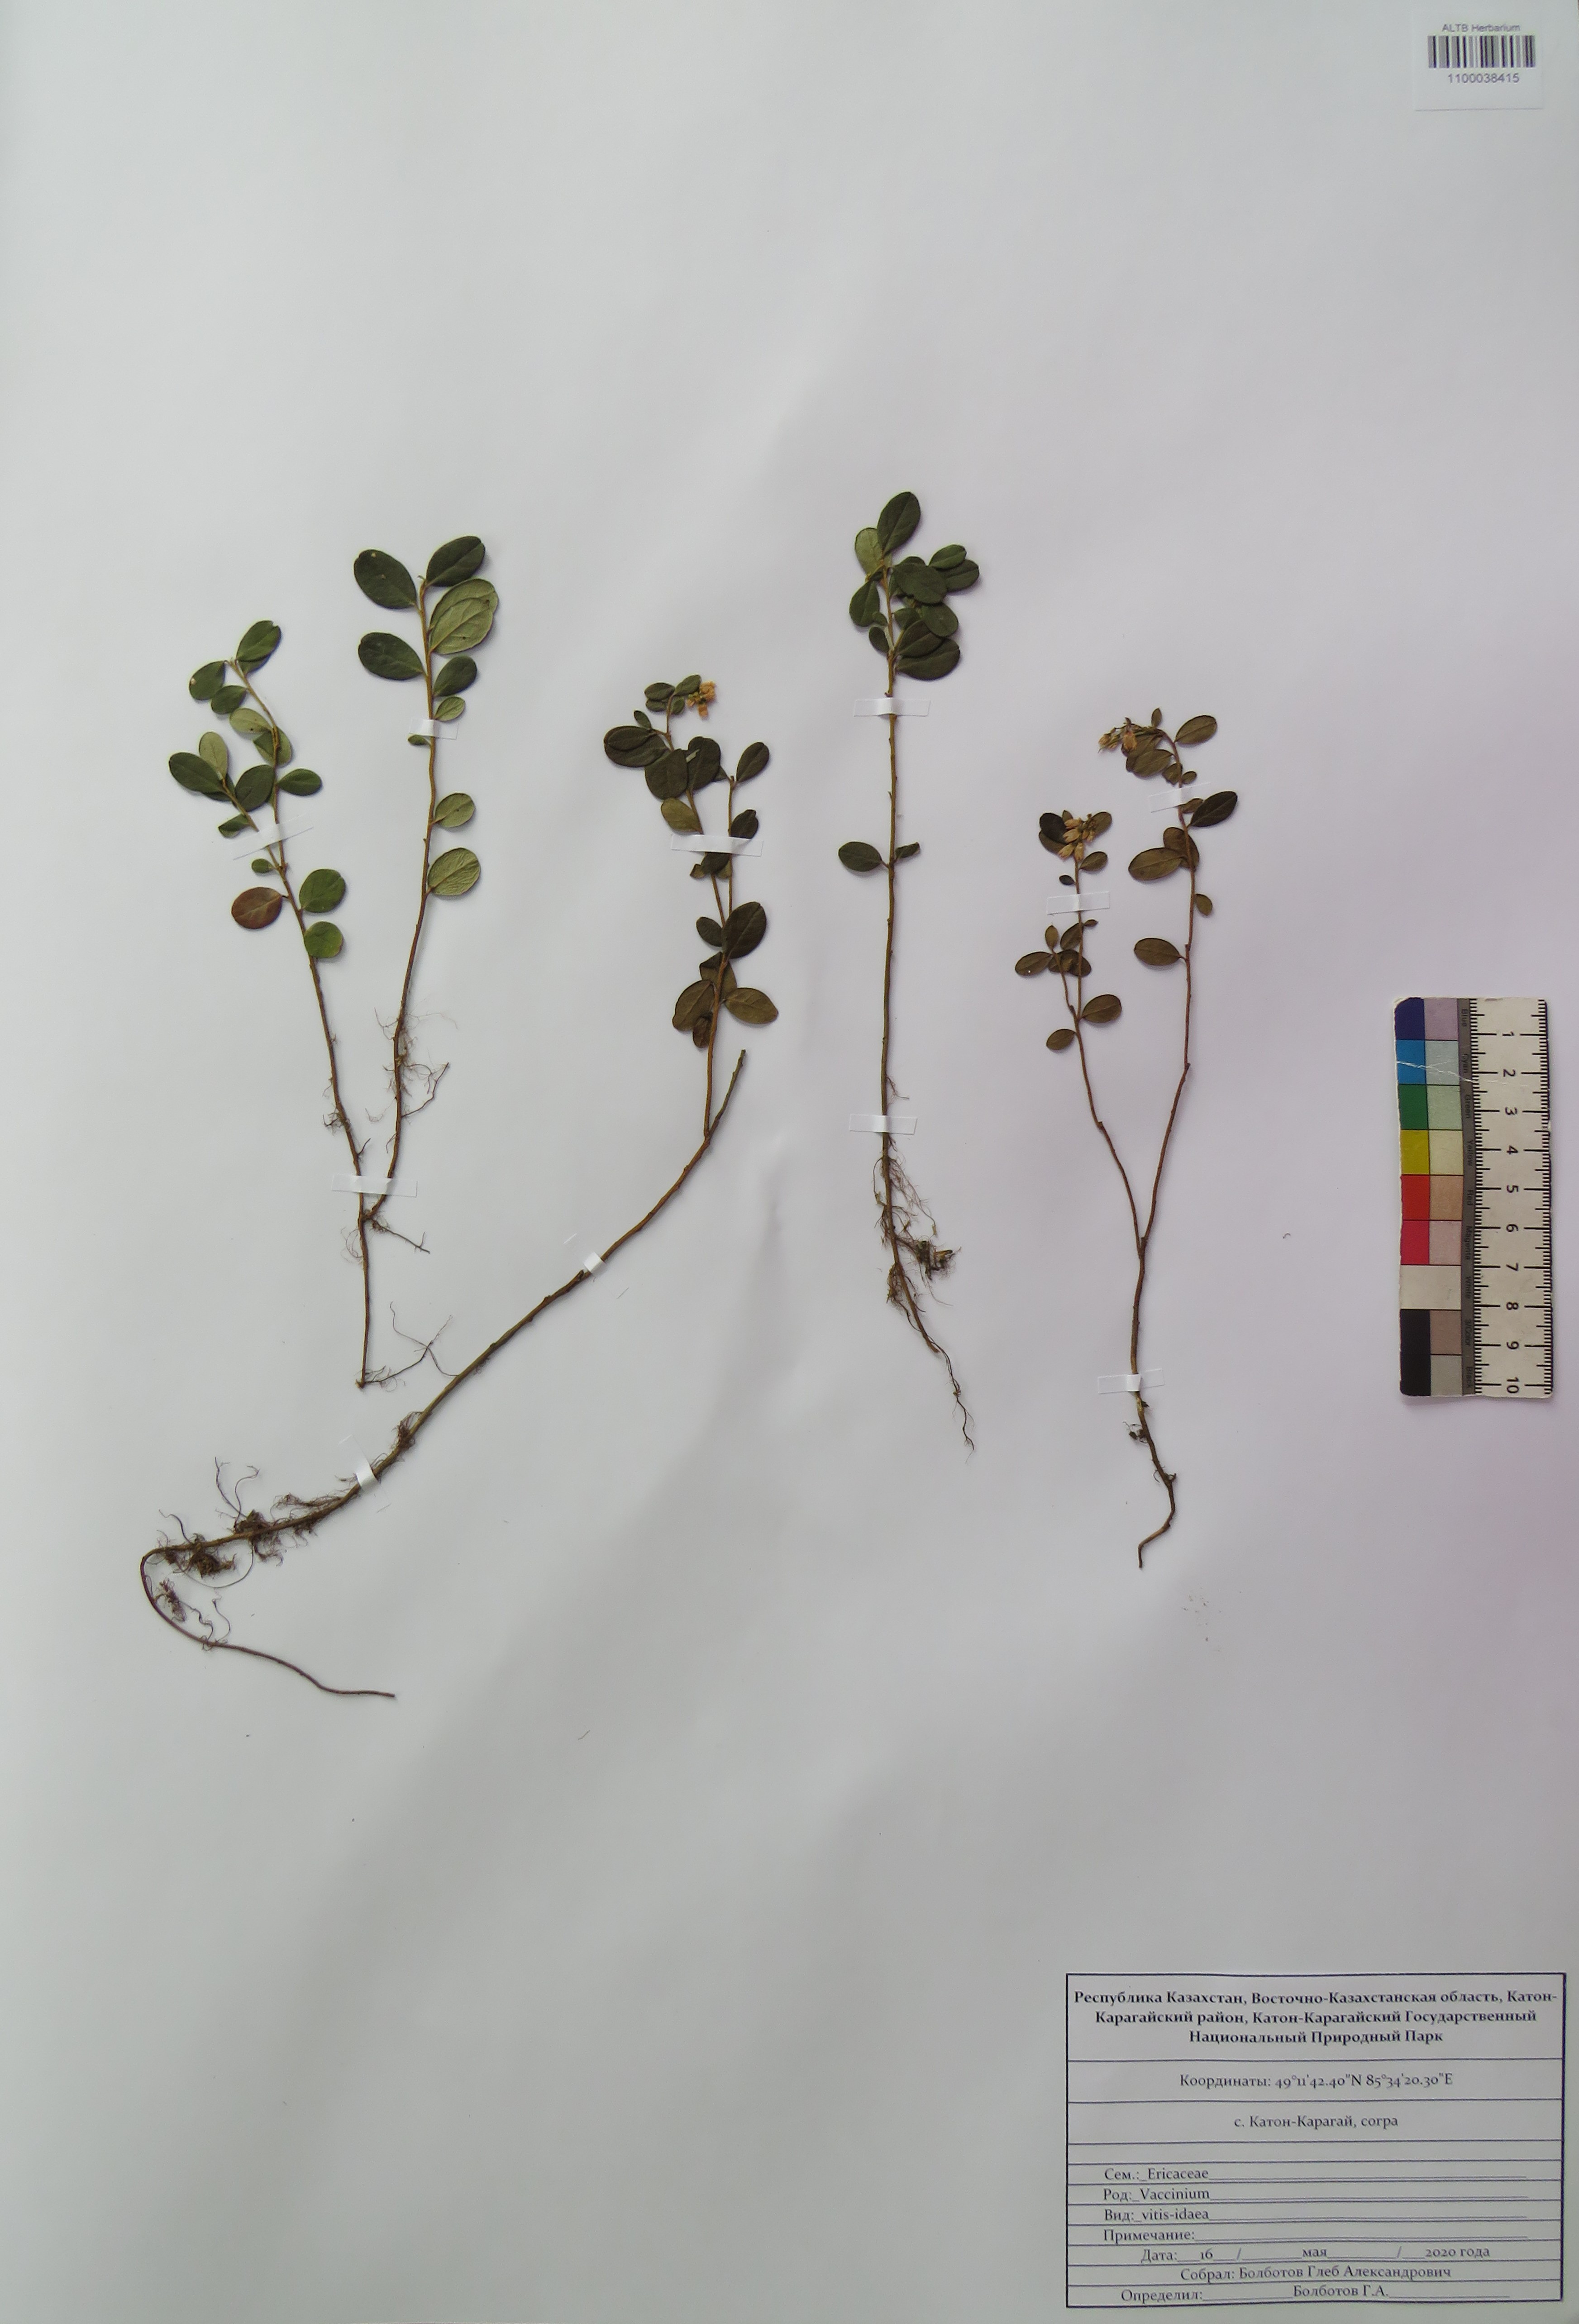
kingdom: Plantae
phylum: Tracheophyta
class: Magnoliopsida
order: Ericales
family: Ericaceae
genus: Vaccinium
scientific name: Vaccinium vitis-idaea
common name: Cowberry
